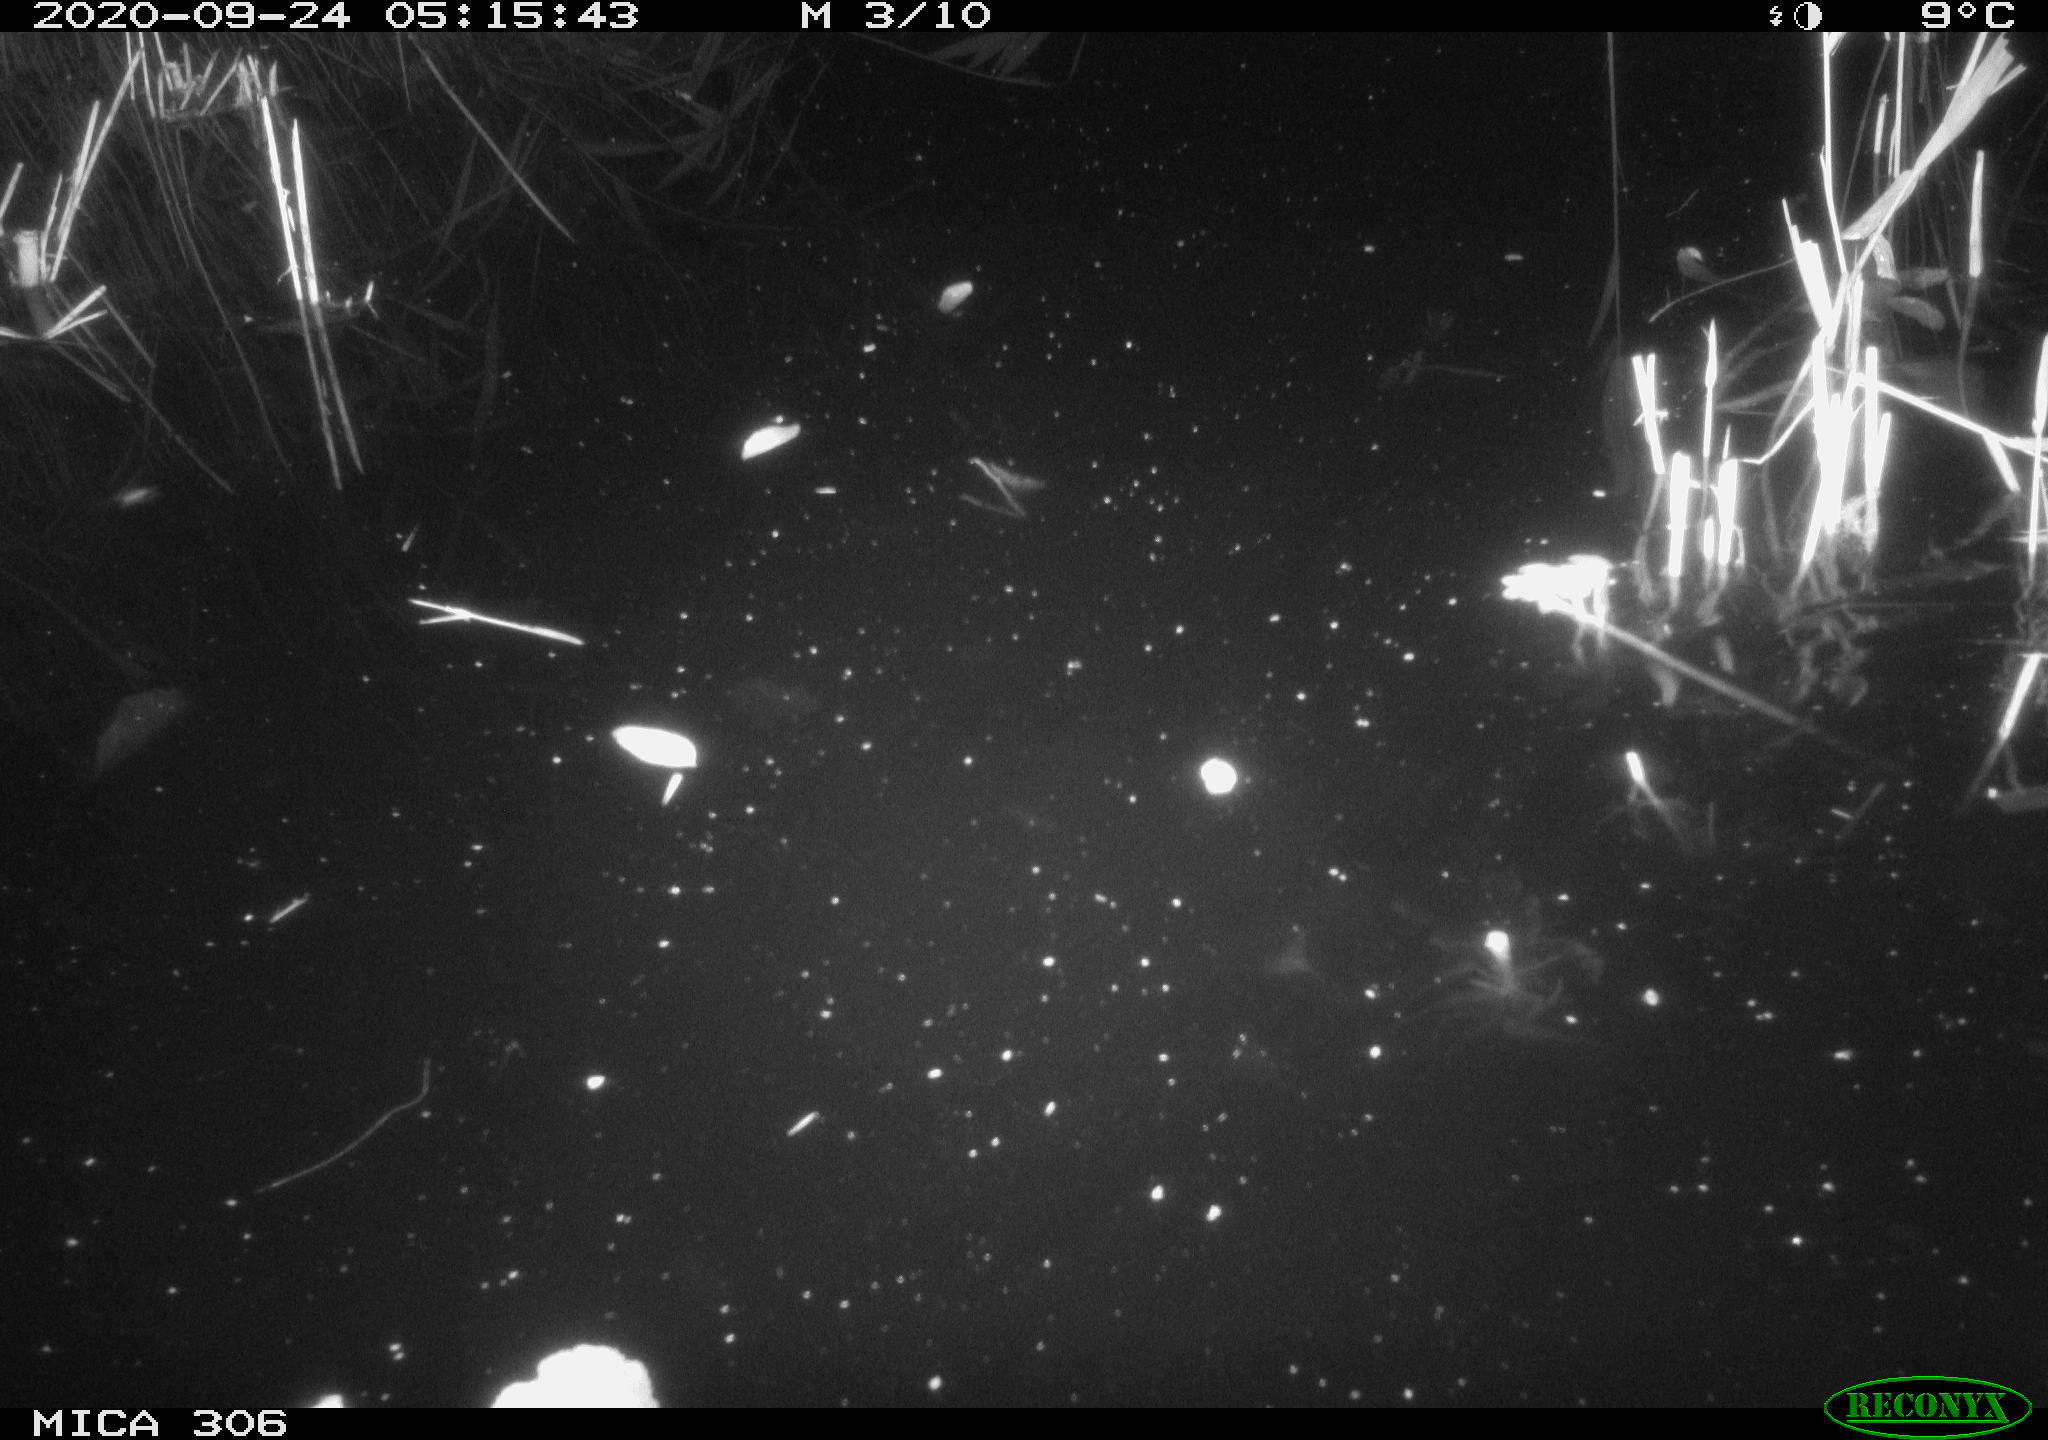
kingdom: Animalia
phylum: Chordata
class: Mammalia
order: Rodentia
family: Muridae
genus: Rattus
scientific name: Rattus norvegicus
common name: Brown rat
